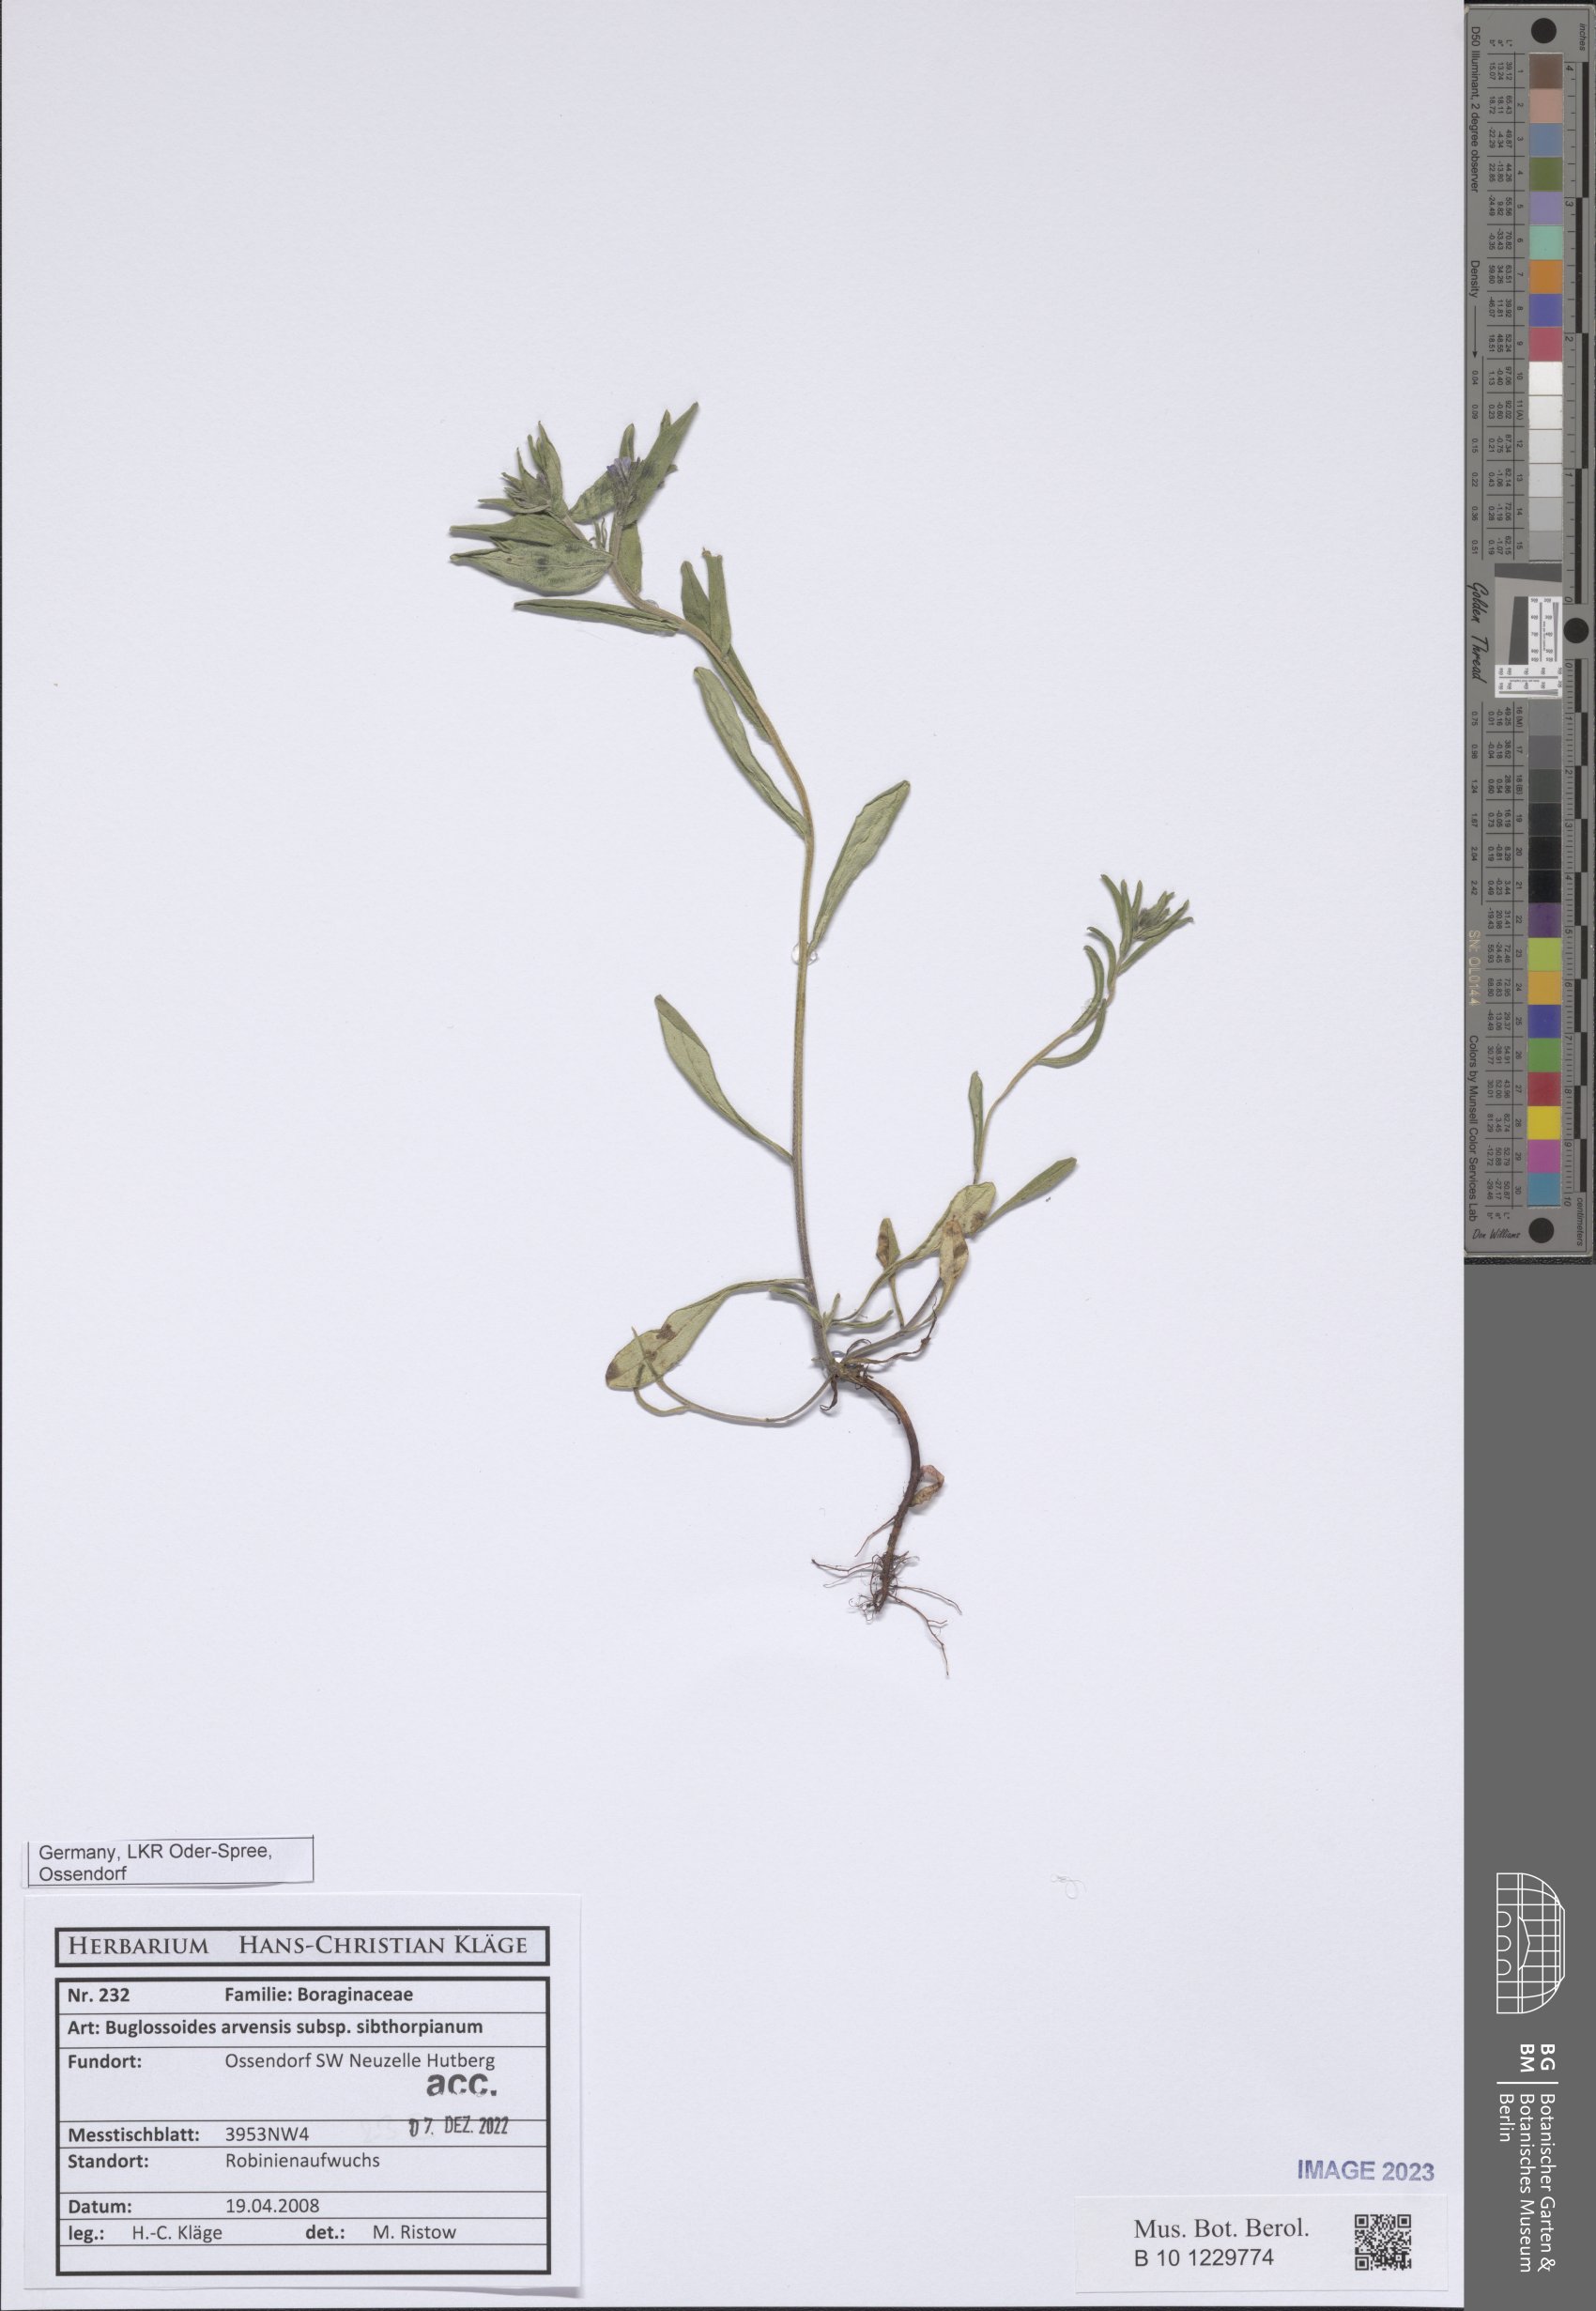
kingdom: Plantae
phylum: Tracheophyta
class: Magnoliopsida
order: Boraginales
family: Boraginaceae
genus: Buglossoides
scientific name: Buglossoides arvensis
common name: Corn gromwell
